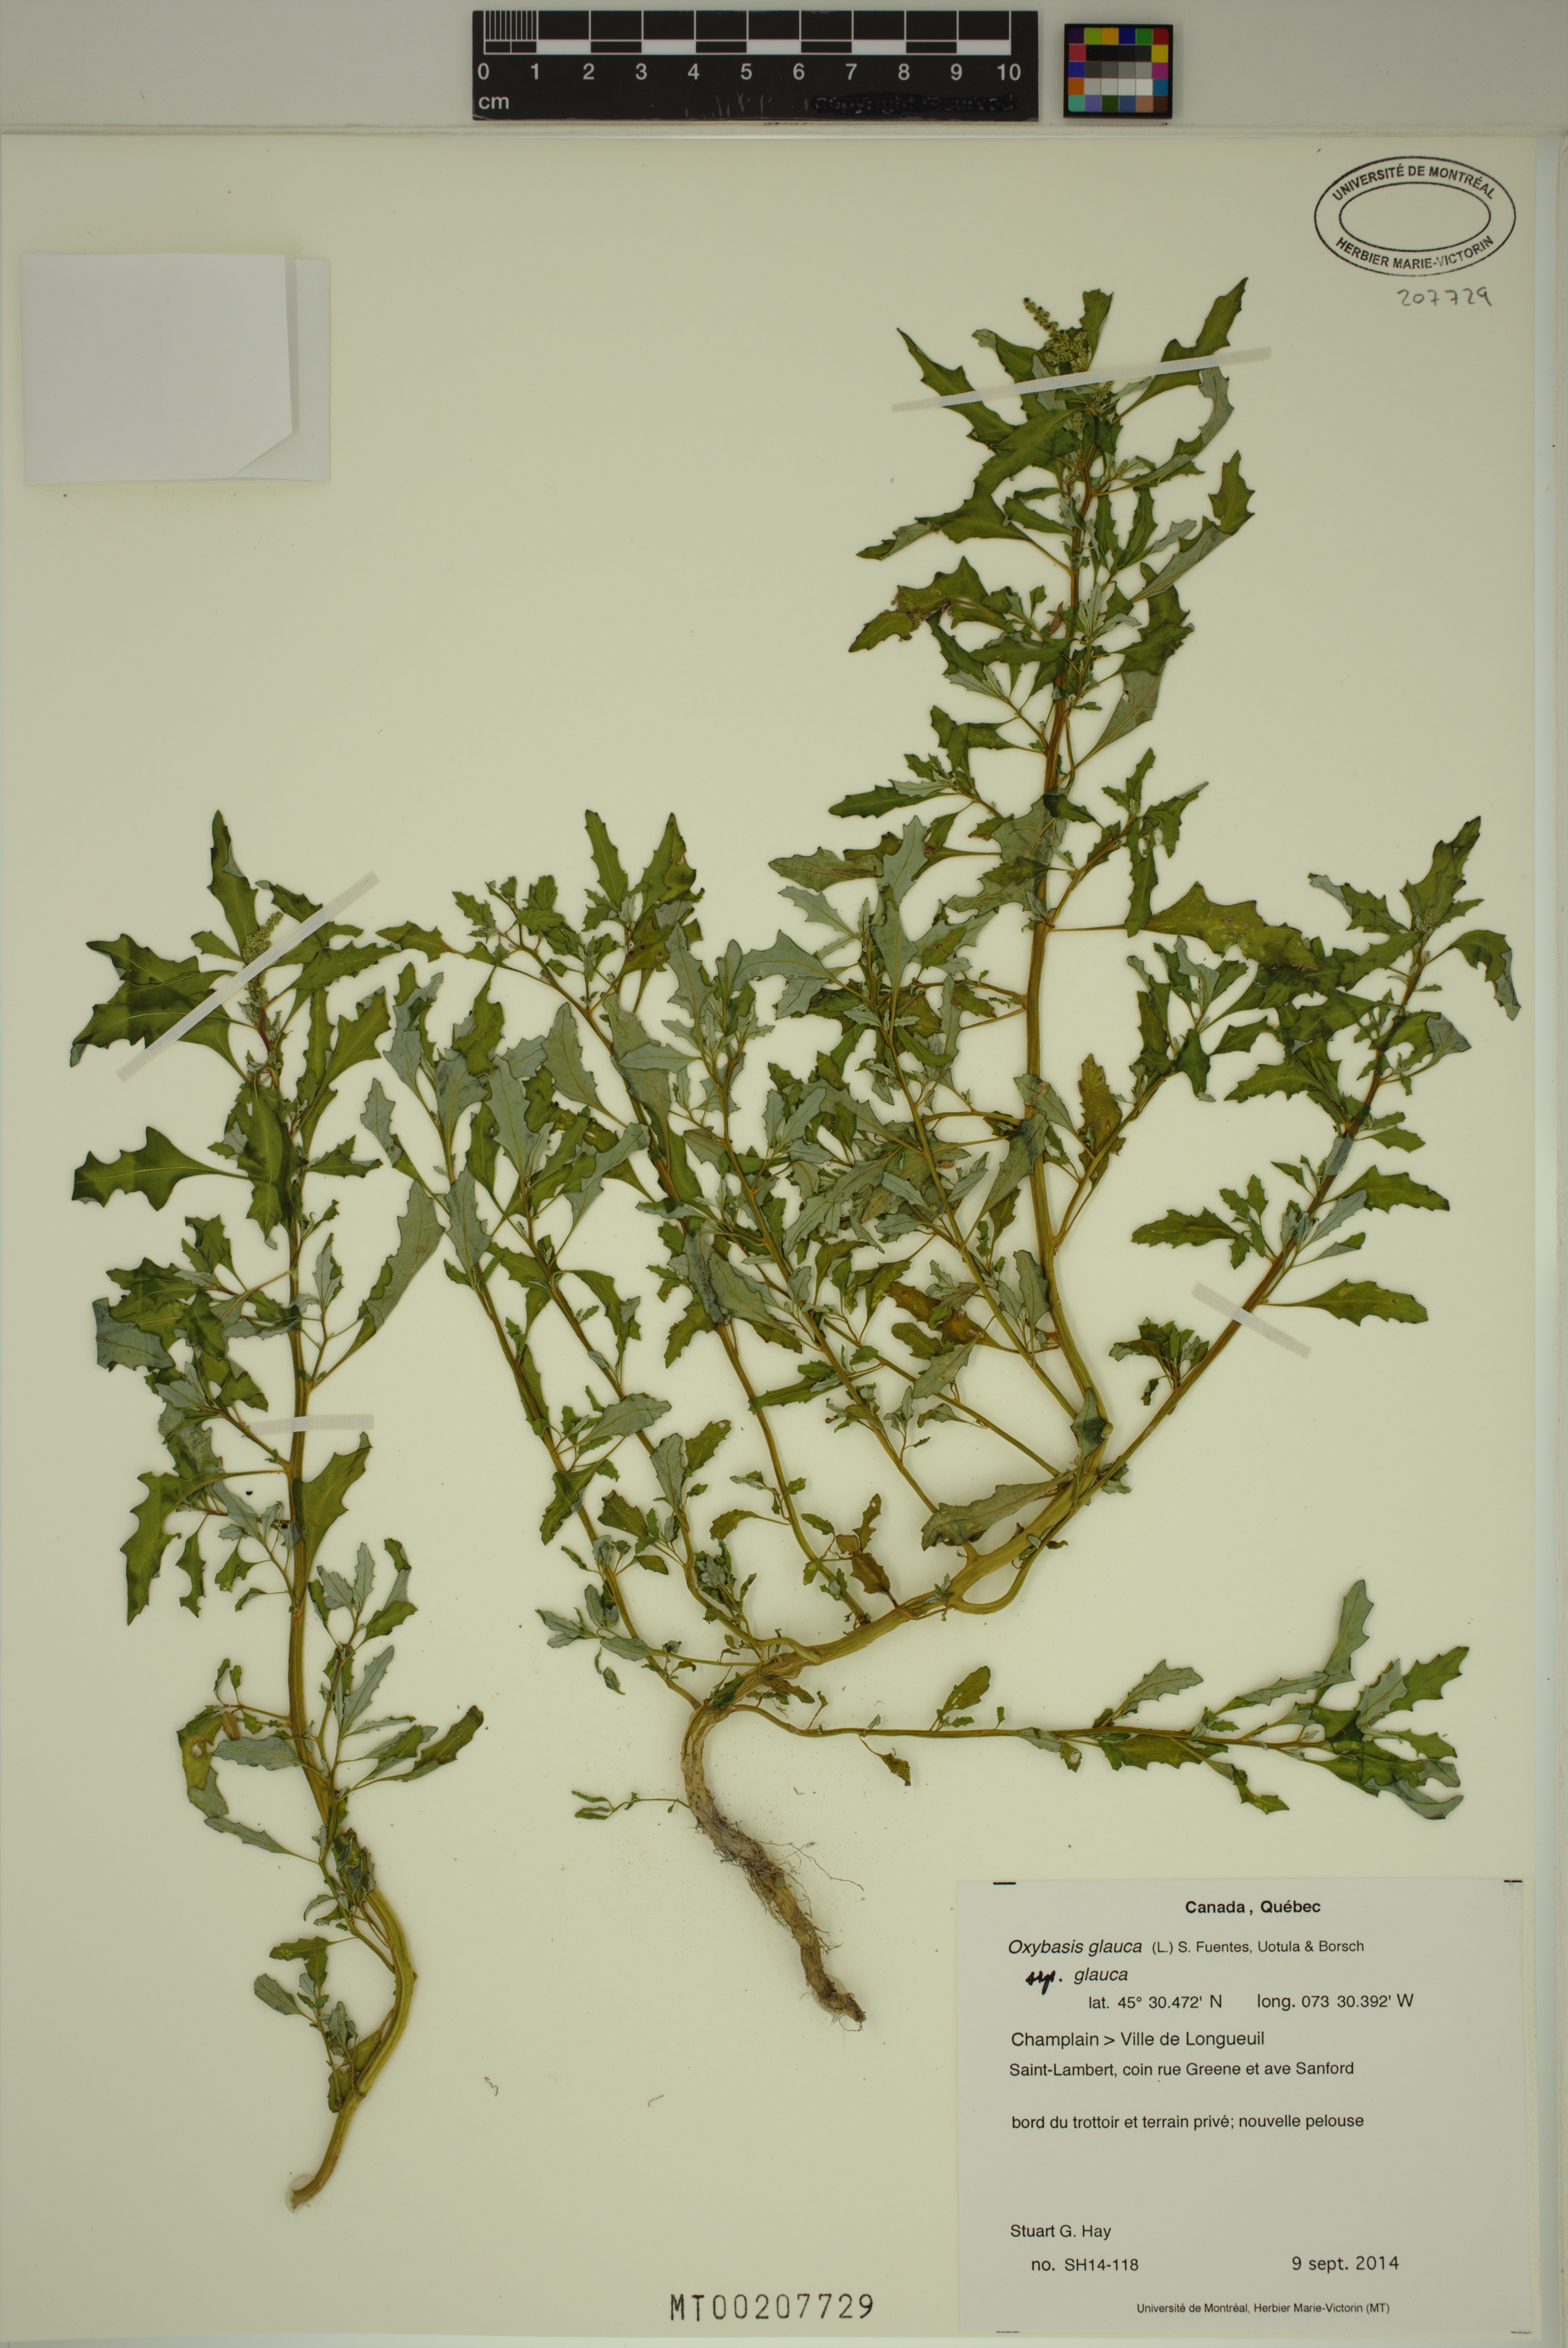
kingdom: Plantae
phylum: Tracheophyta
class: Magnoliopsida
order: Caryophyllales
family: Amaranthaceae
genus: Oxybasis
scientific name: Oxybasis glauca
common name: Glaucous goosefoot
